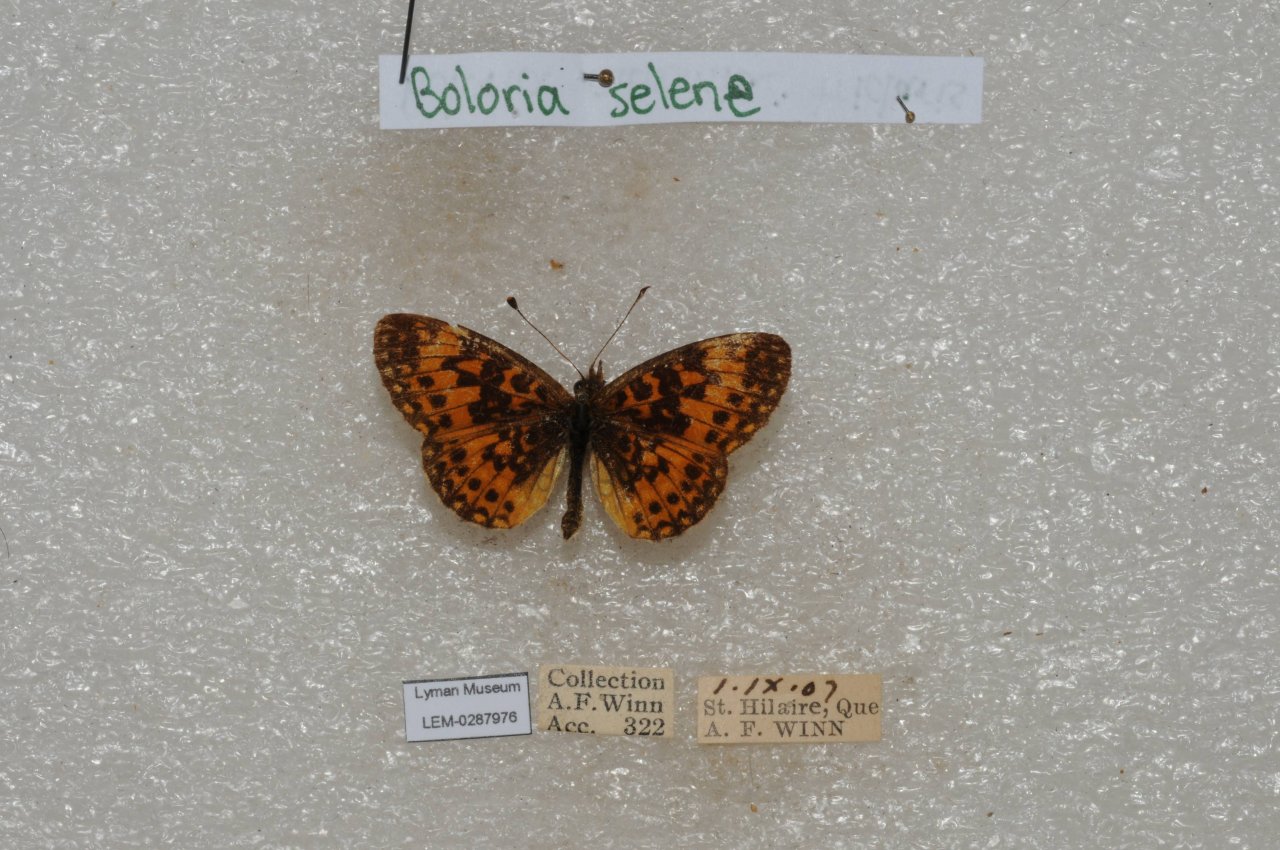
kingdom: Animalia
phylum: Arthropoda
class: Insecta
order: Lepidoptera
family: Nymphalidae
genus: Boloria
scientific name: Boloria selene
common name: Silver-bordered Fritillary
